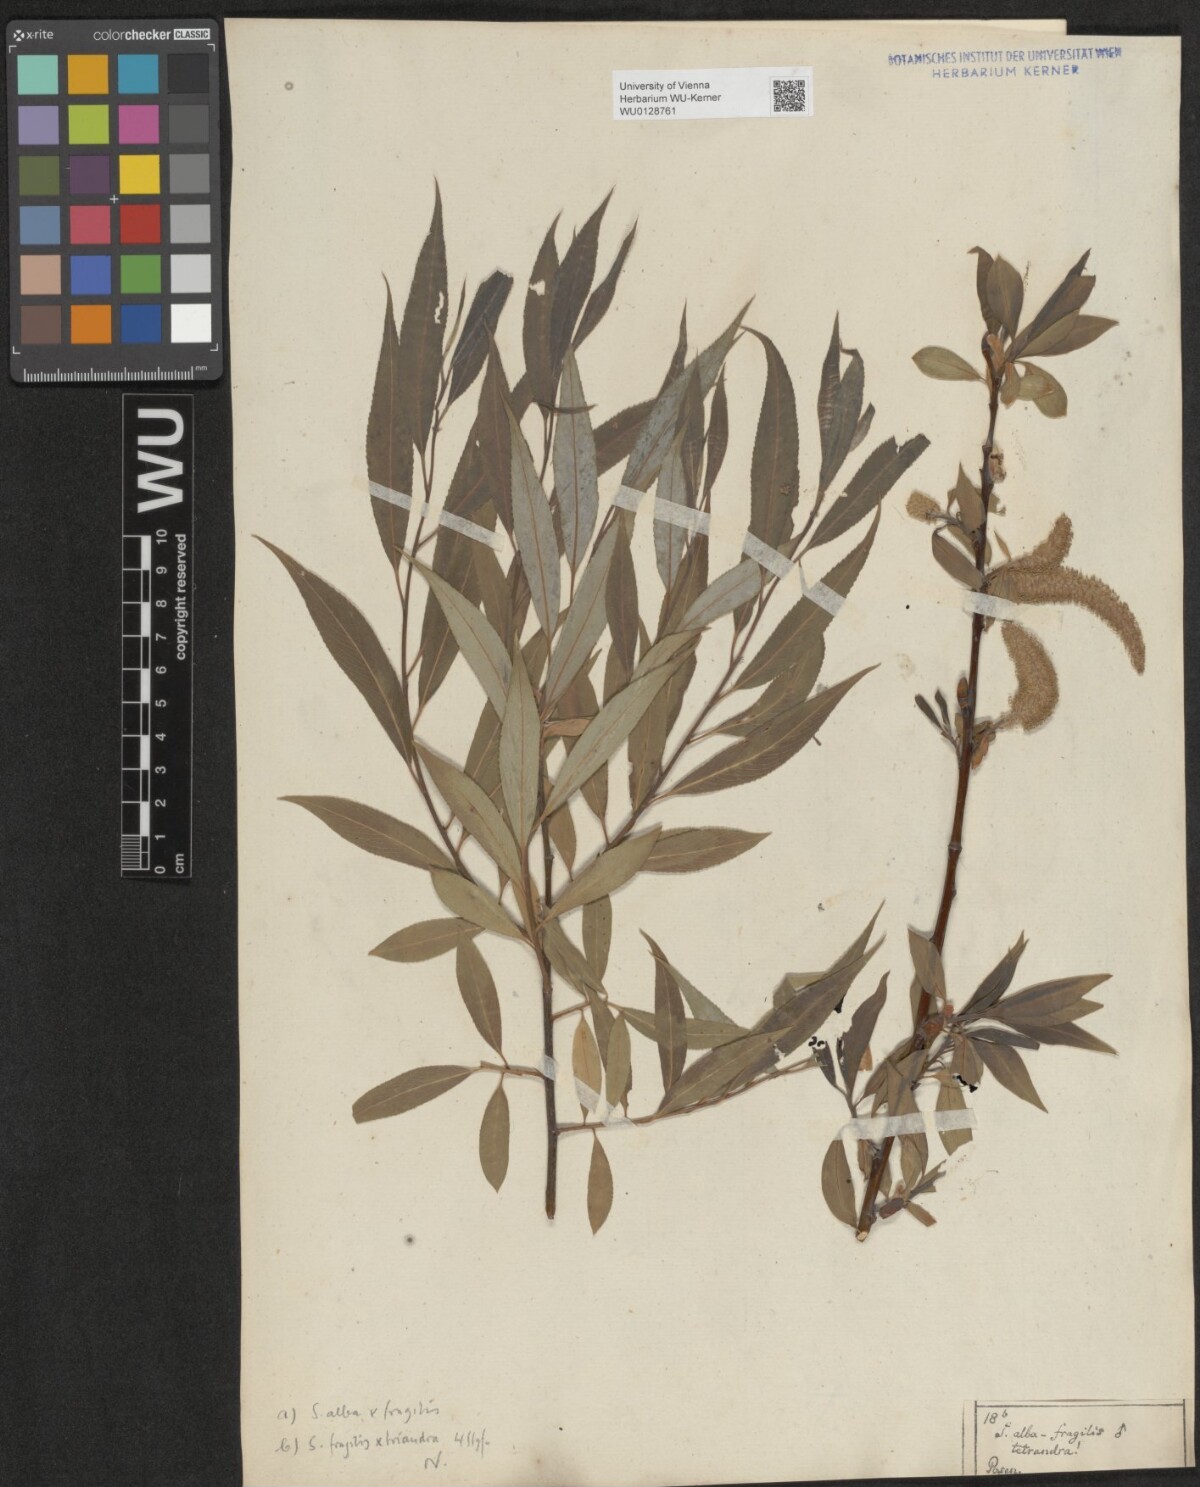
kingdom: Plantae
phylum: Tracheophyta
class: Magnoliopsida
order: Malpighiales
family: Salicaceae
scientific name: Salicaceae
